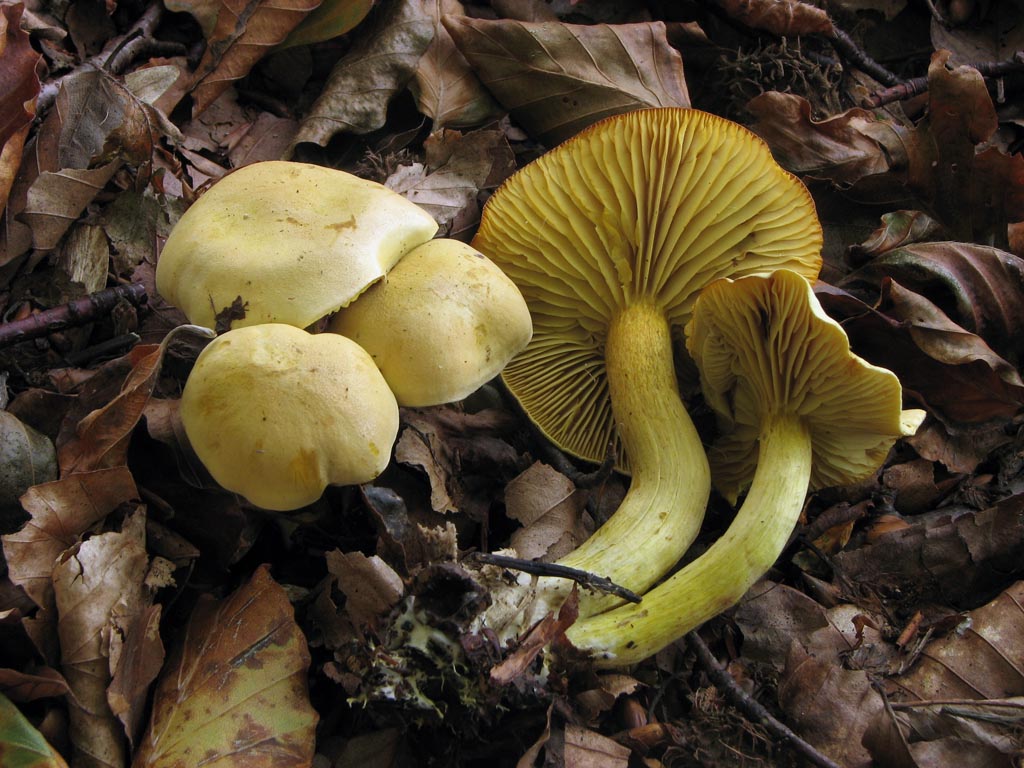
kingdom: Fungi
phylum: Basidiomycota
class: Agaricomycetes
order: Agaricales
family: Tricholomataceae
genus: Tricholoma
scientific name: Tricholoma sulphureum
